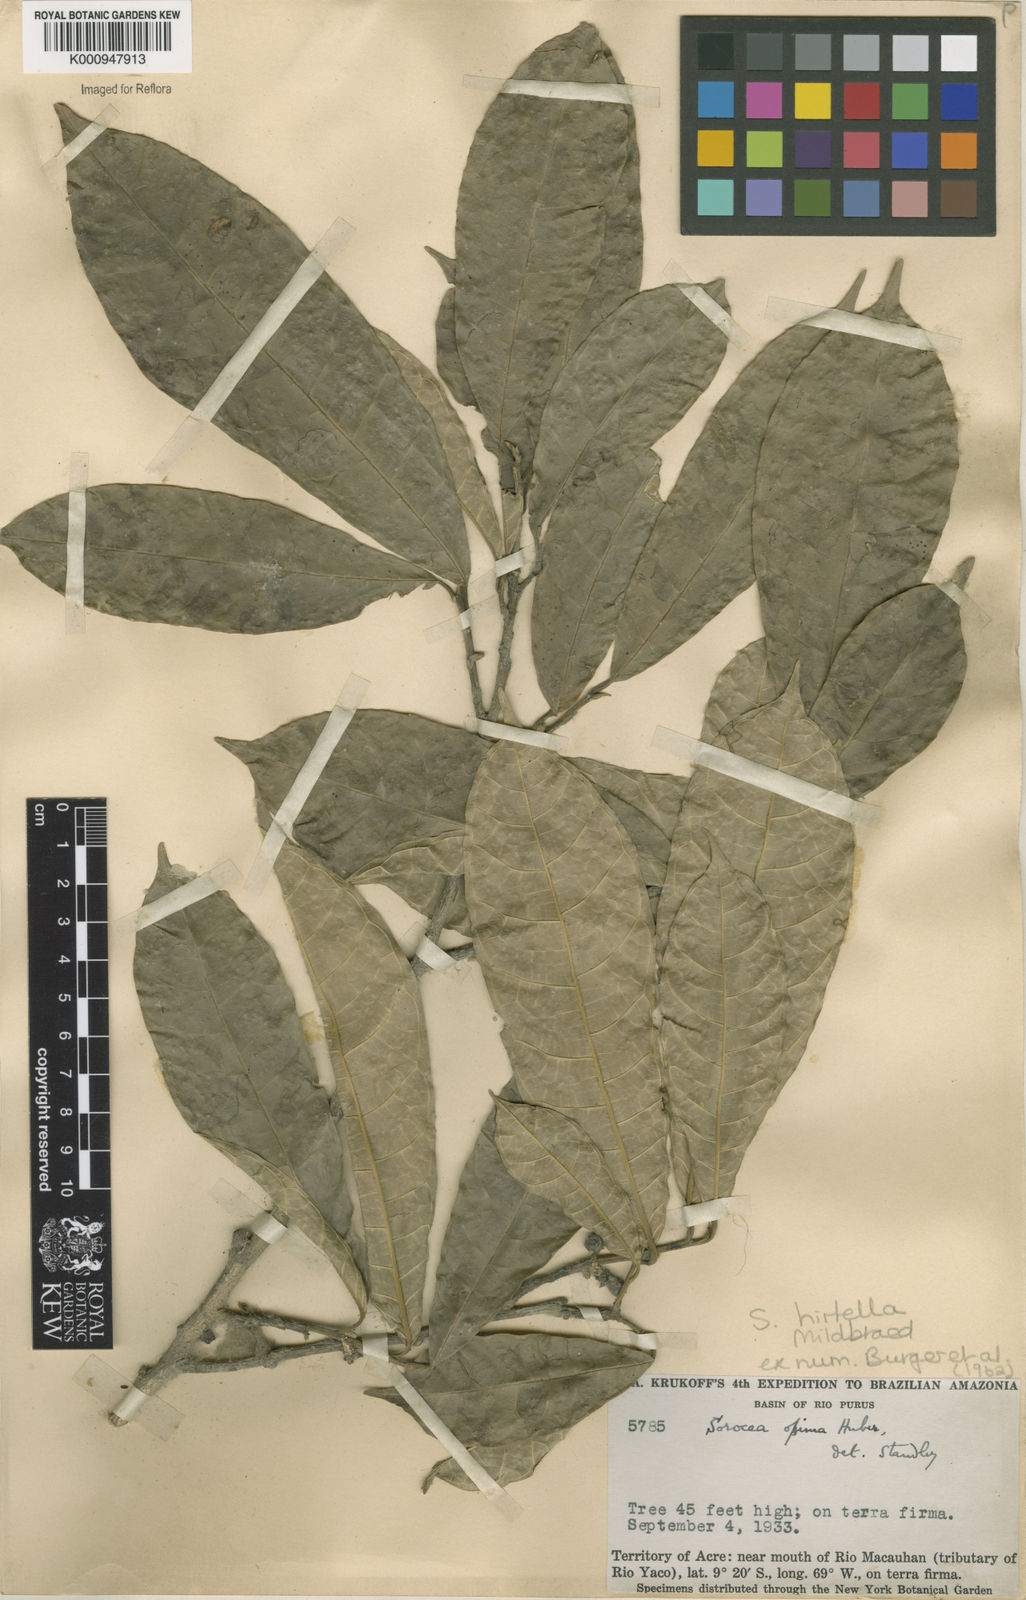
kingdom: Plantae
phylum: Tracheophyta
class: Magnoliopsida
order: Rosales
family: Moraceae
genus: Sorocea
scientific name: Sorocea pubivena
